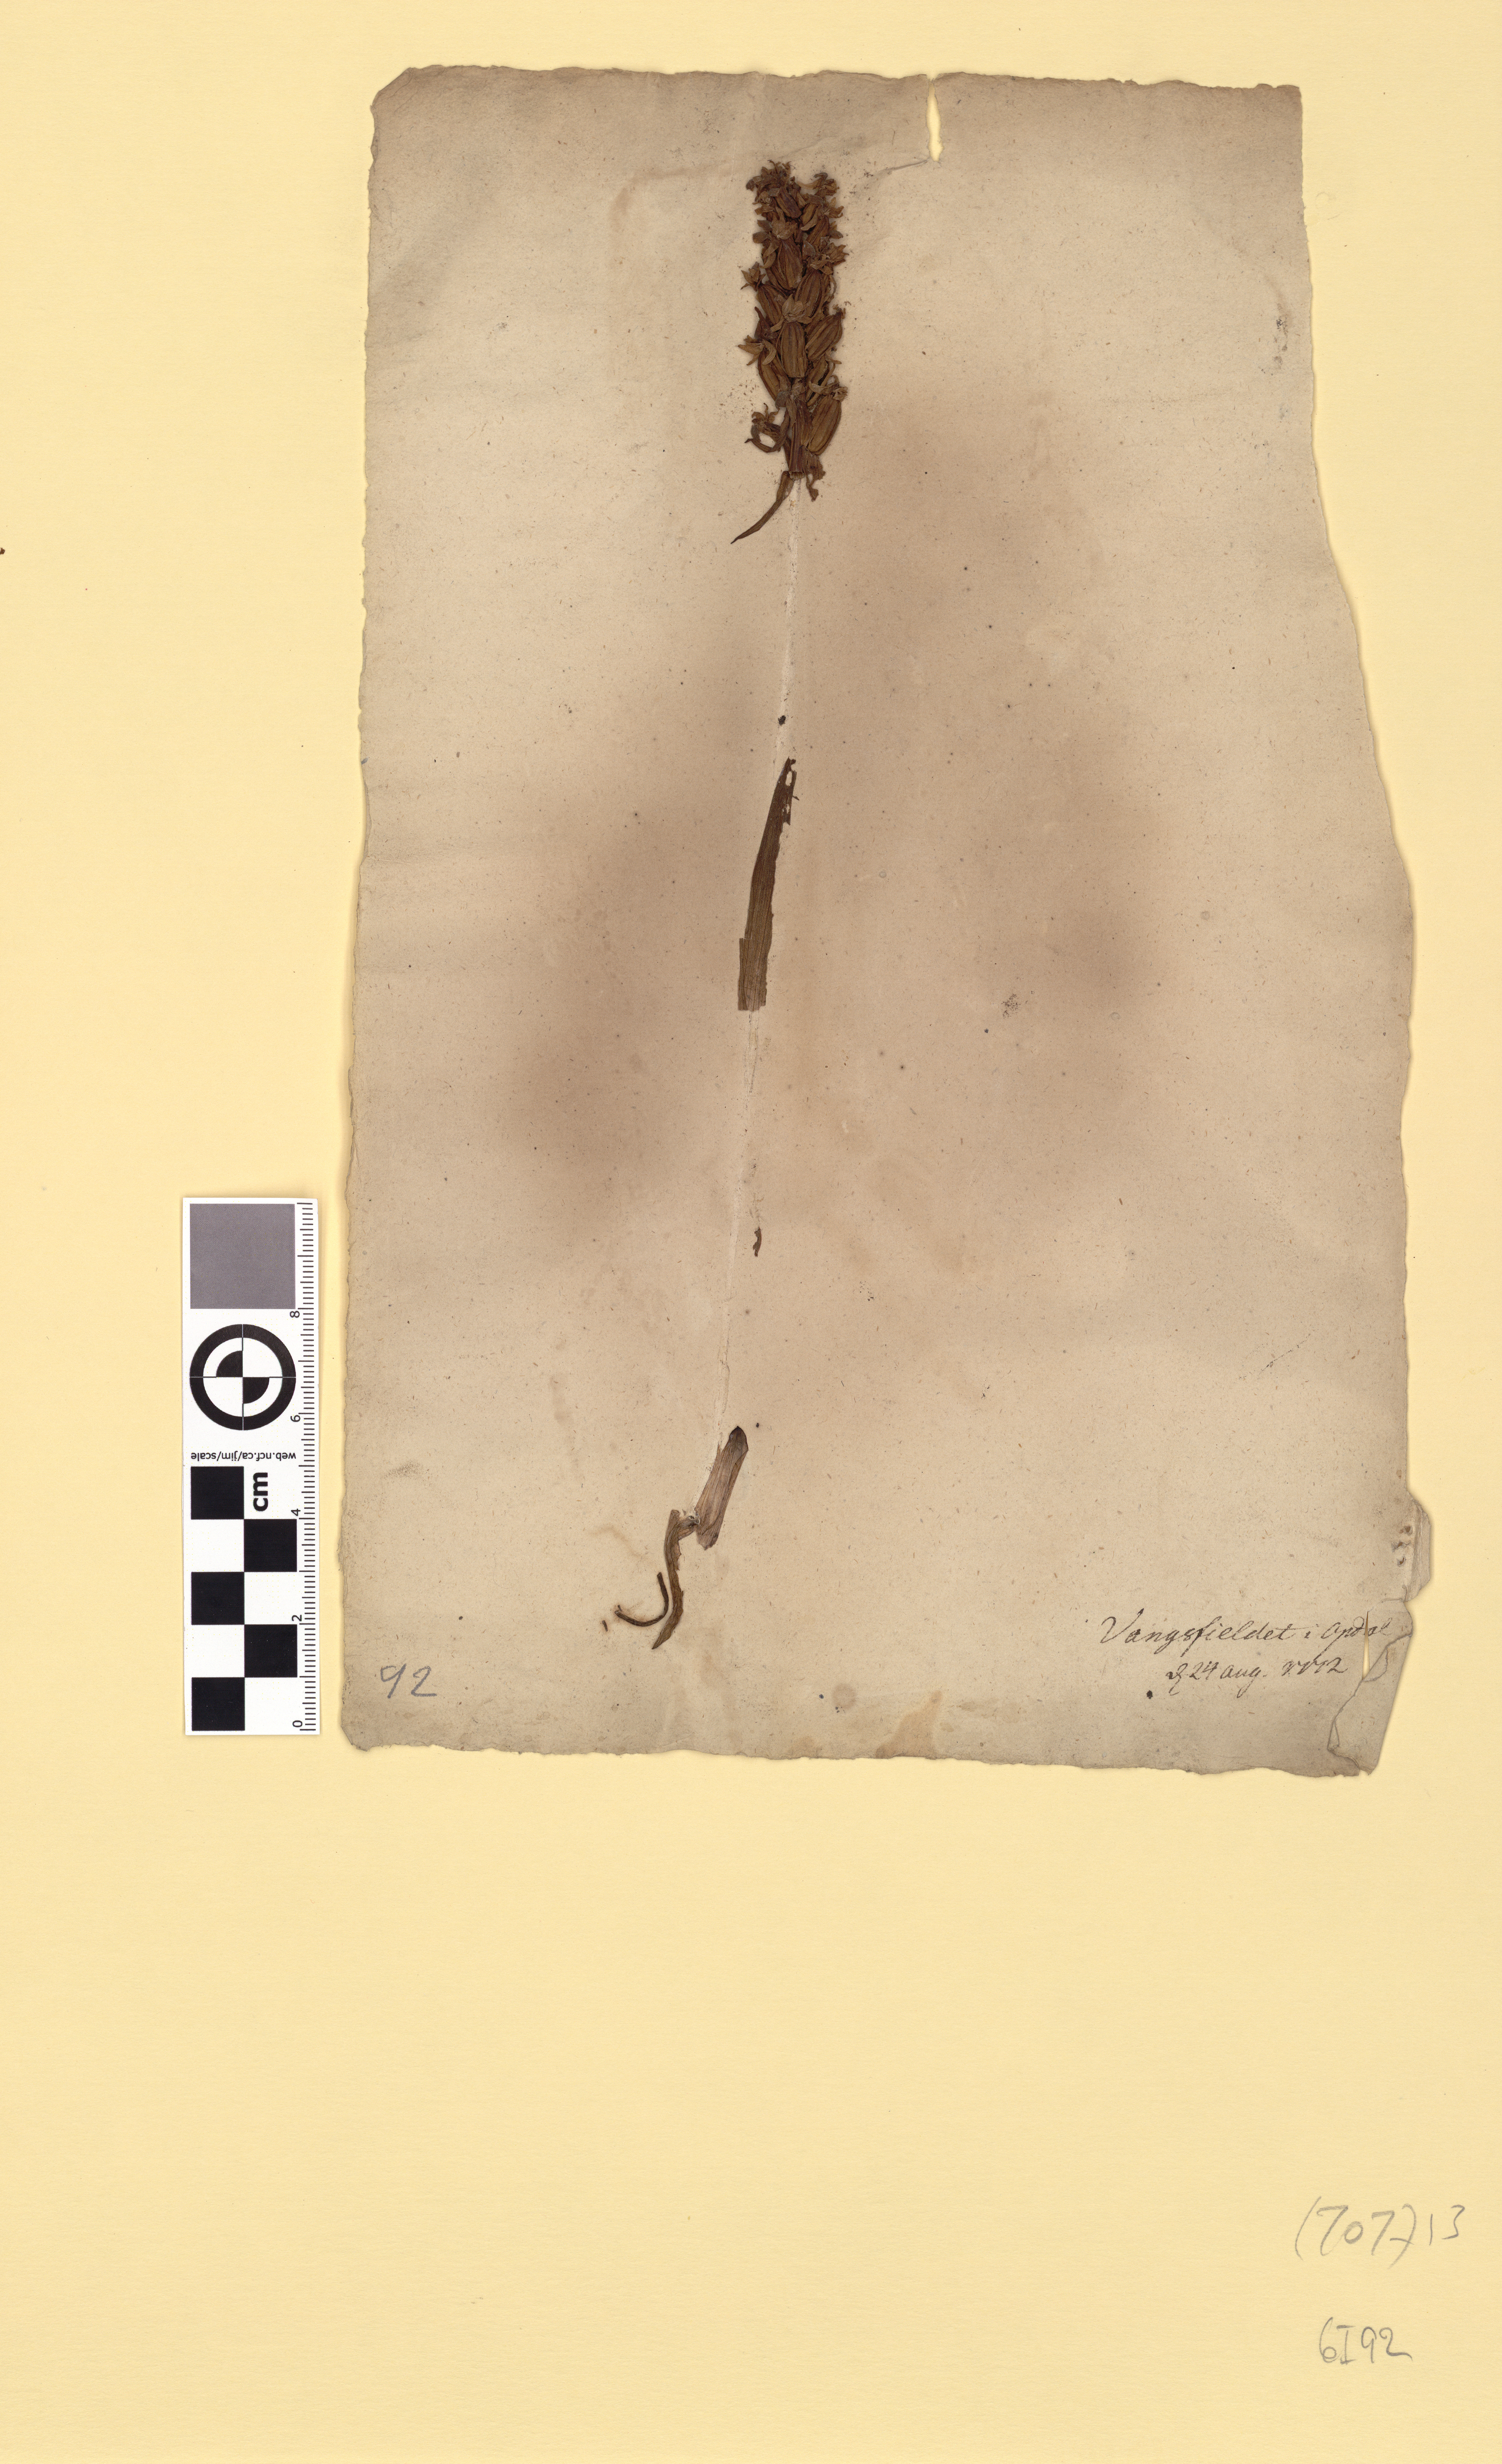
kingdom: Plantae
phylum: Tracheophyta
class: Liliopsida
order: Asparagales
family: Orchidaceae
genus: Dactylorhiza
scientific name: Dactylorhiza maculata
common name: Heath spotted-orchid
